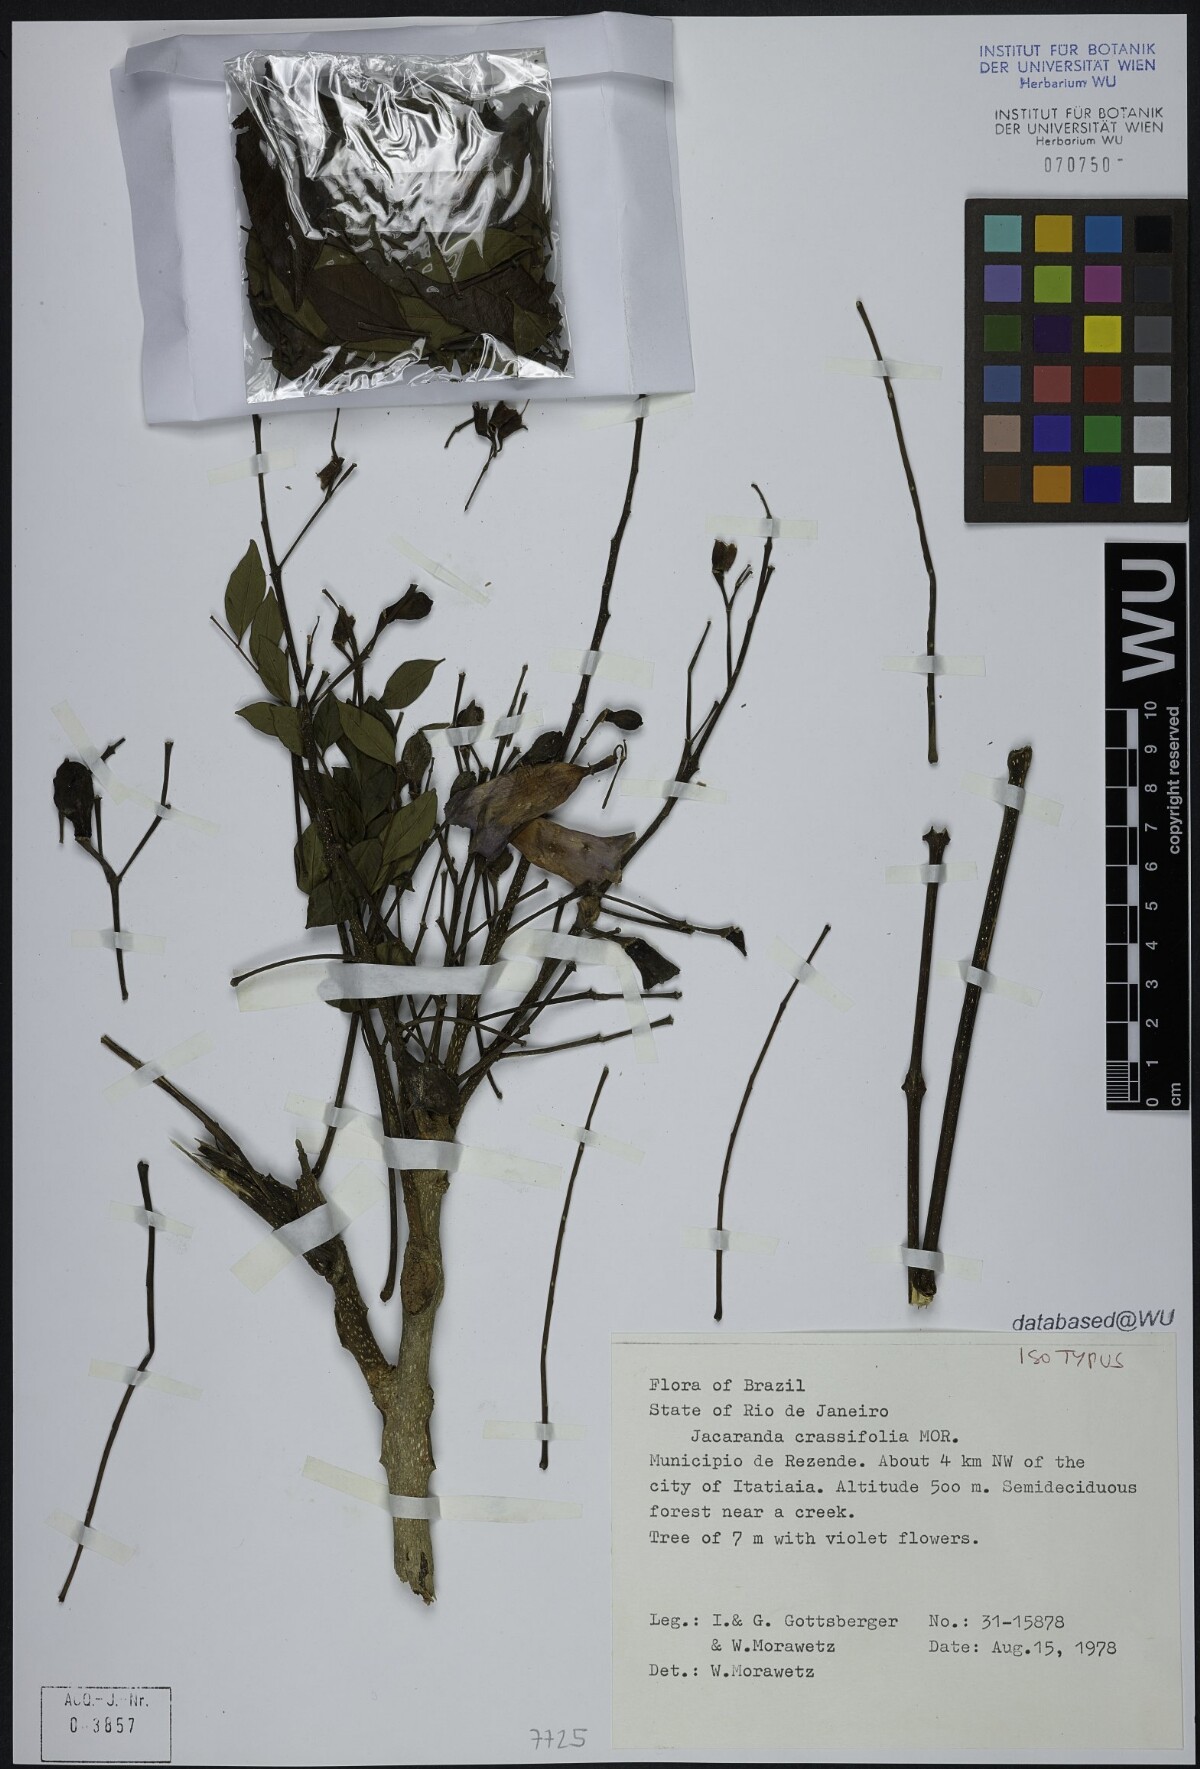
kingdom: Plantae
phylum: Tracheophyta
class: Magnoliopsida
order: Lamiales
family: Bignoniaceae
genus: Jacaranda
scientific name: Jacaranda crassifolia
